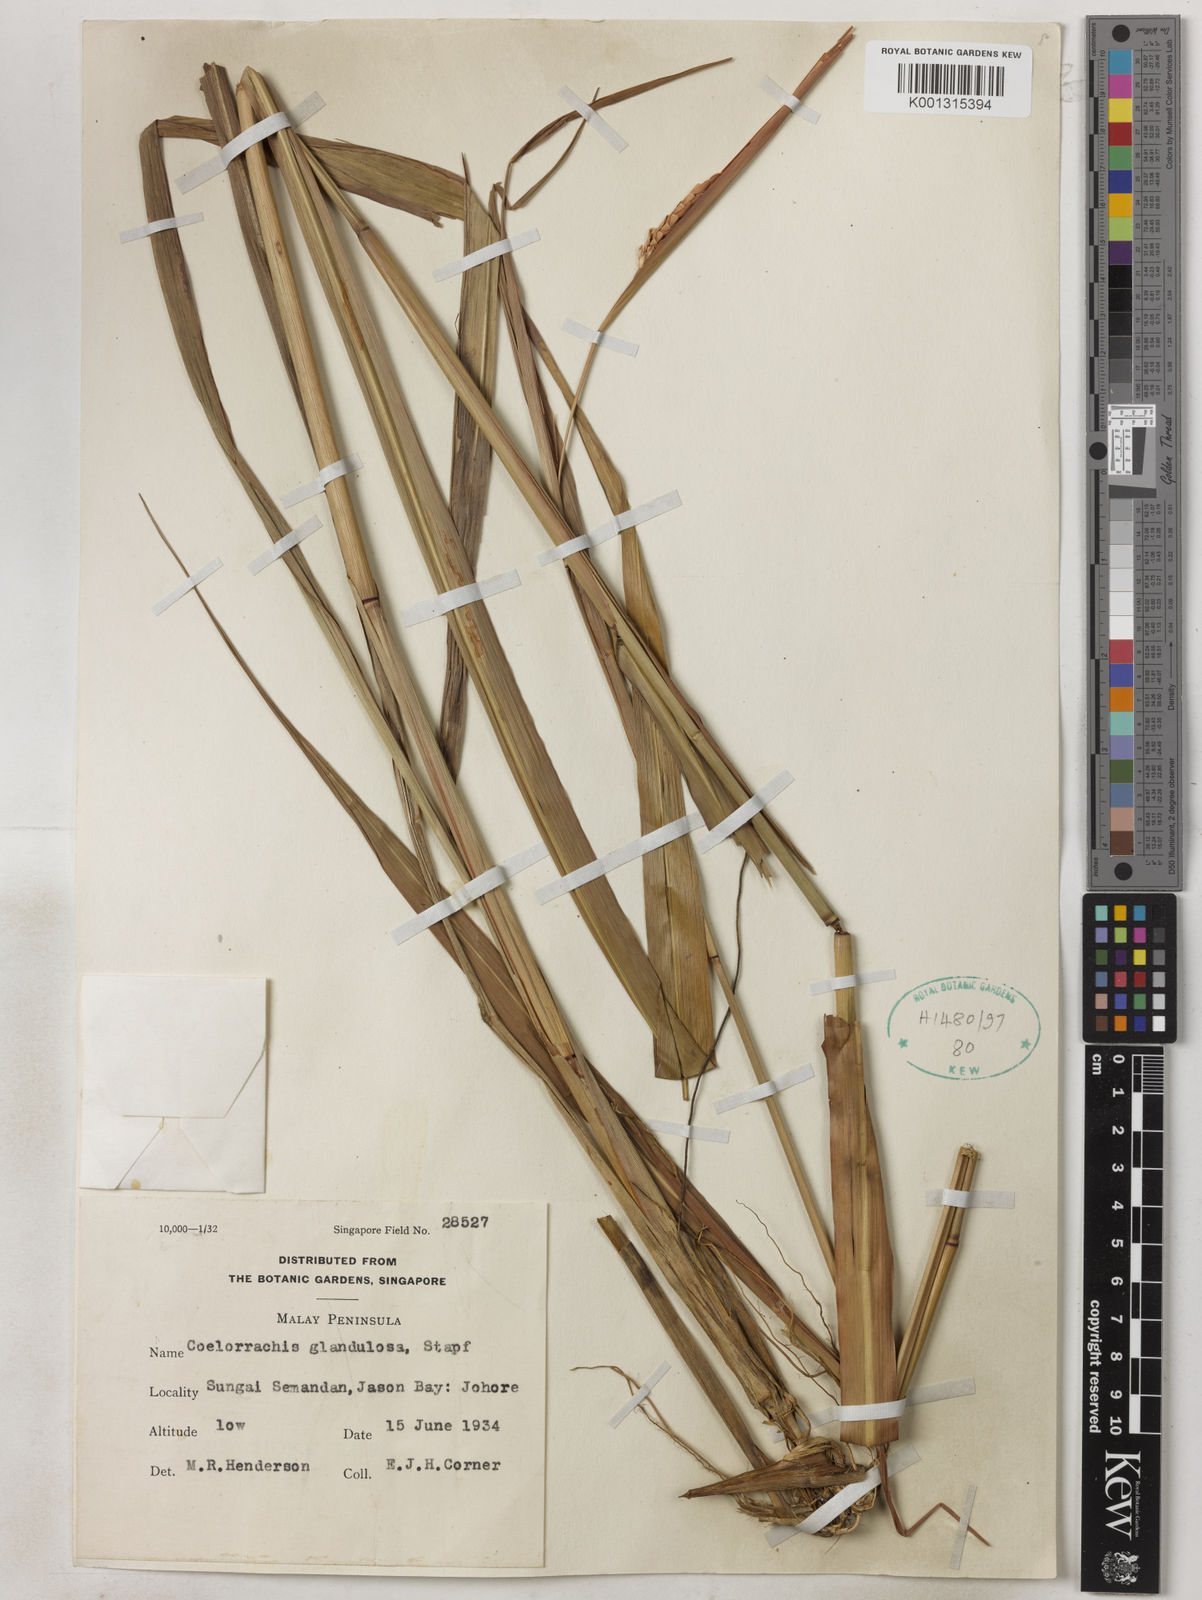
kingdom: Plantae
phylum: Tracheophyta
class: Liliopsida
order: Poales
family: Poaceae
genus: Rottboellia
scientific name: Rottboellia glandulosa
